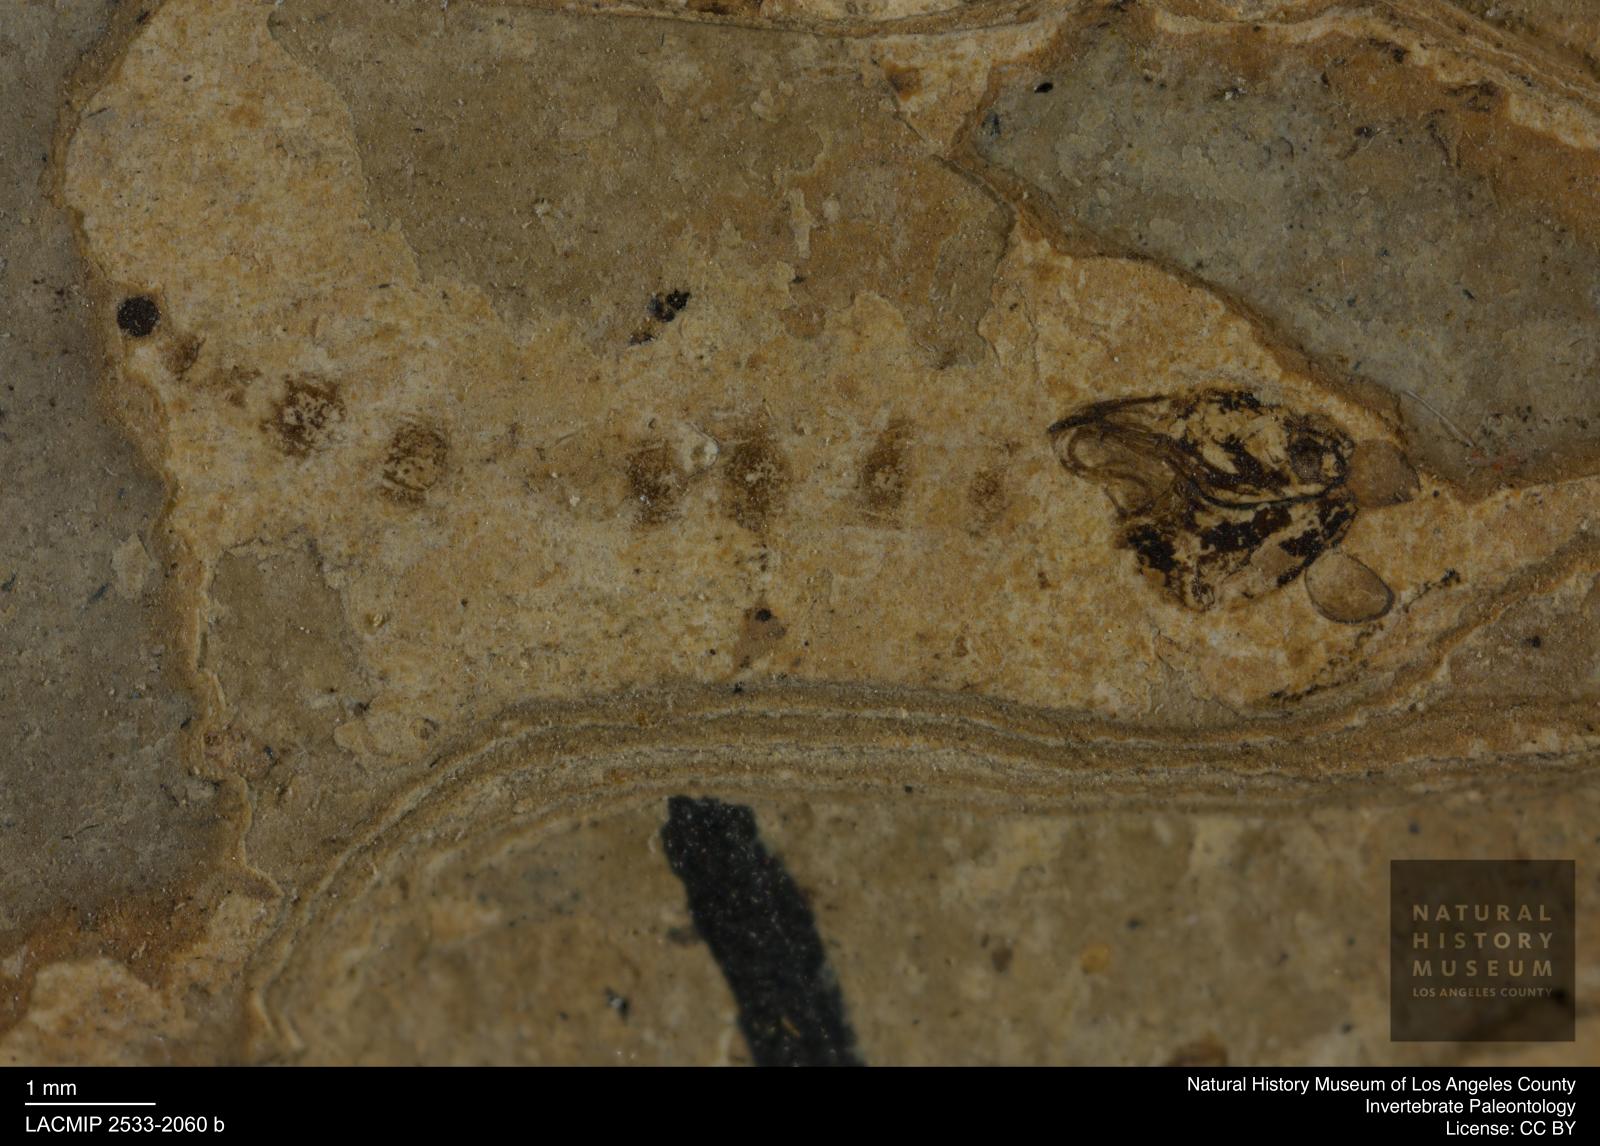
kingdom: Animalia
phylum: Arthropoda
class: Insecta
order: Diptera
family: Chironomidae
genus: Pelopiina
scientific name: Pelopiina
